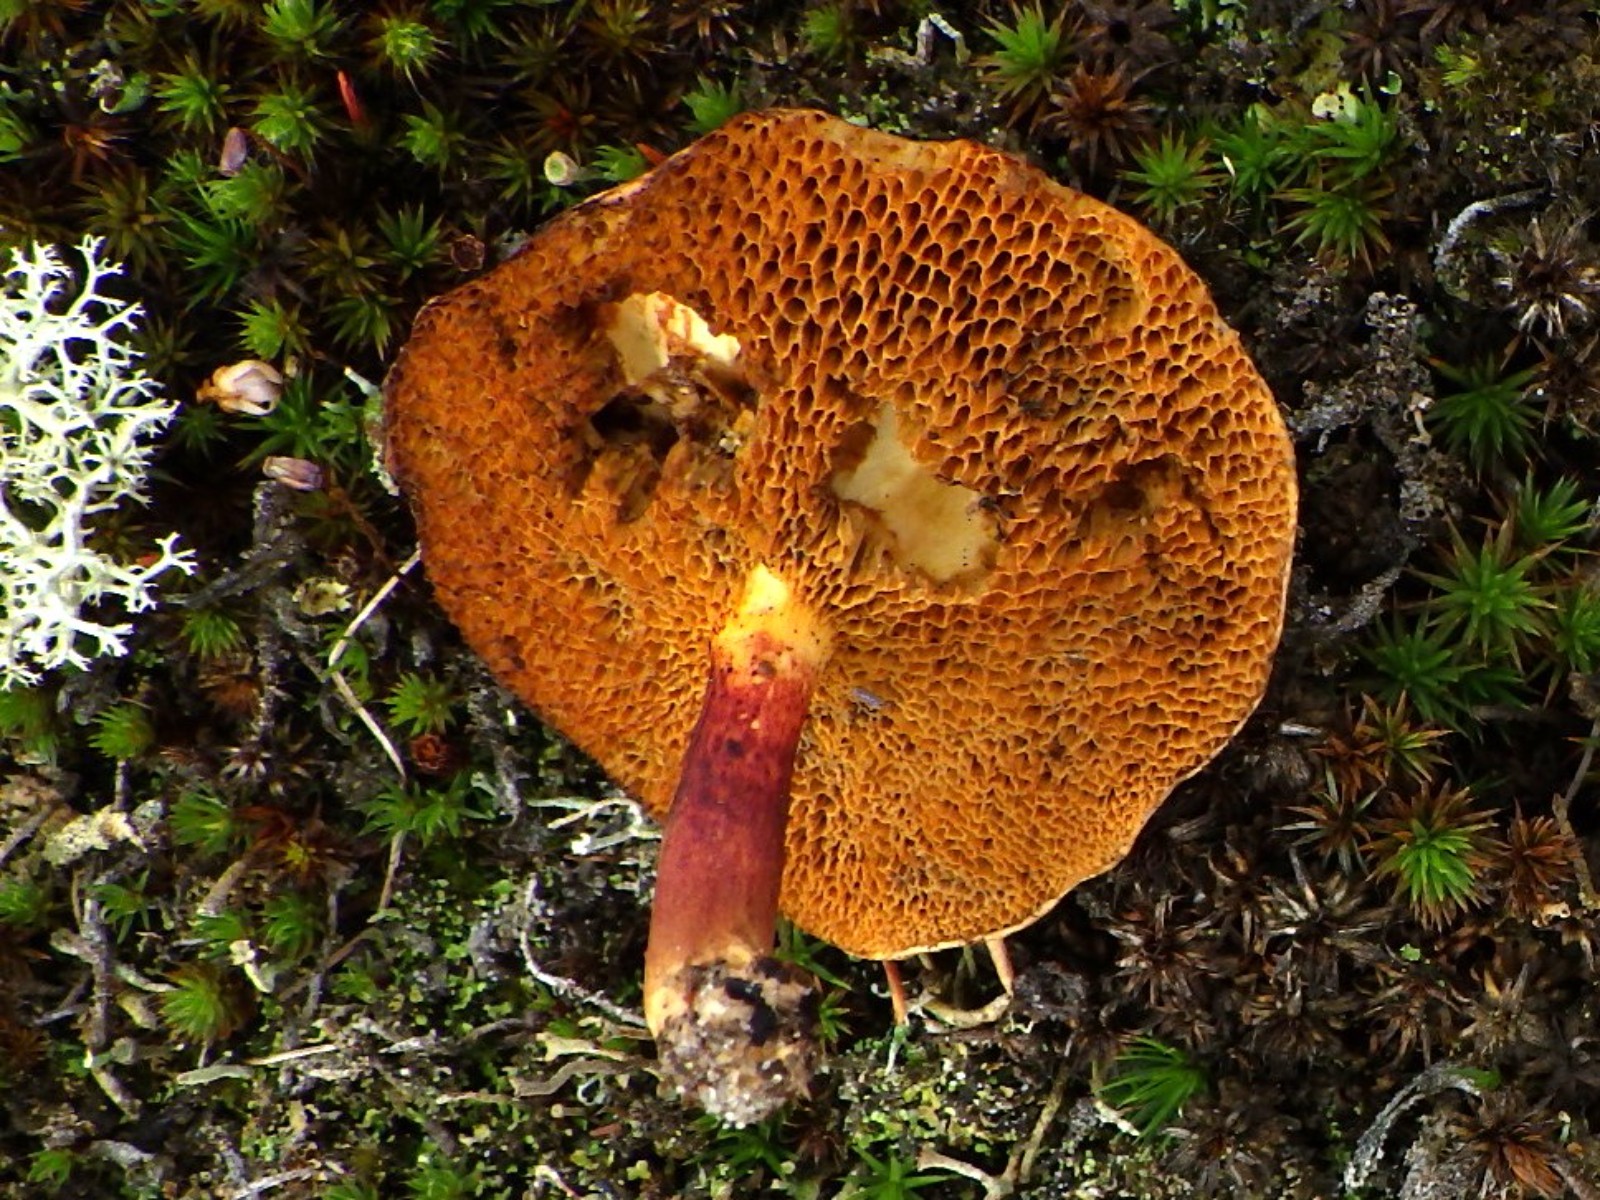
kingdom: Fungi
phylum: Basidiomycota
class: Agaricomycetes
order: Boletales
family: Suillaceae
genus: Suillus
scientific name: Suillus bovinus
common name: grovporet slimrørhat
